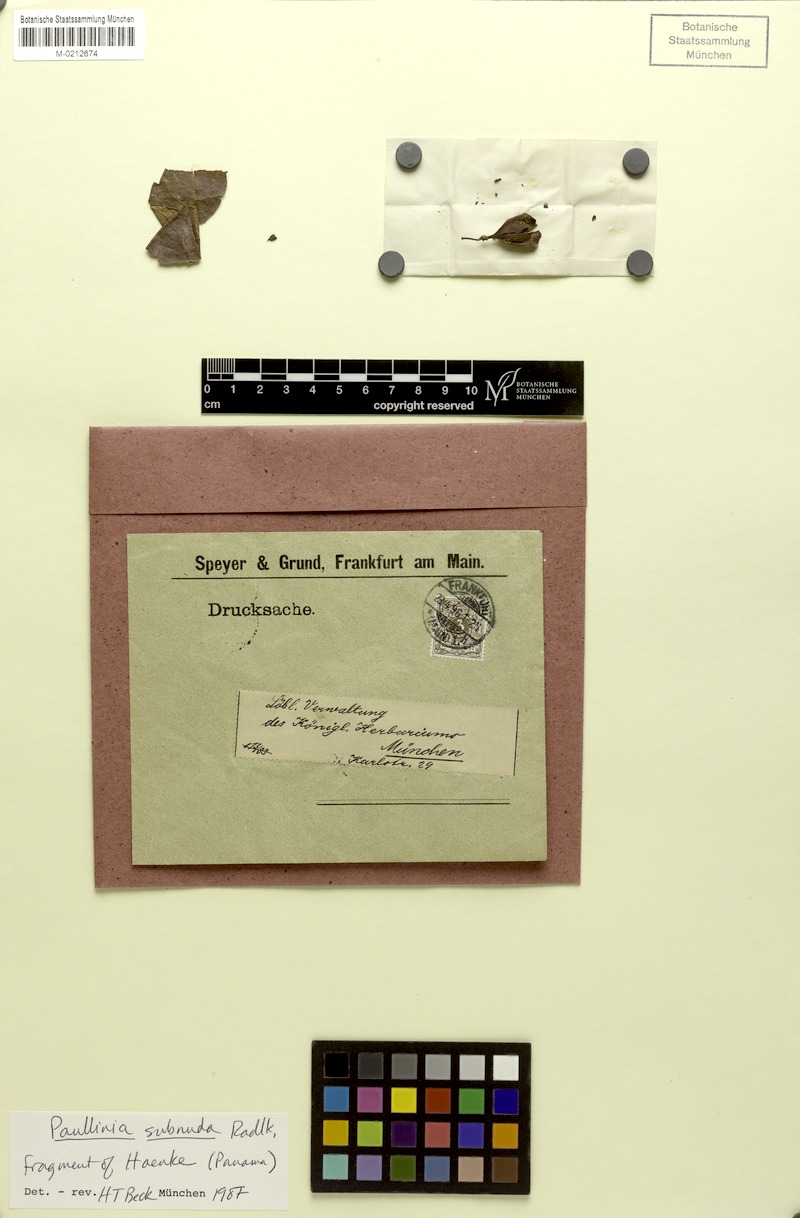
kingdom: Plantae
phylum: Tracheophyta
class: Magnoliopsida
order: Sapindales
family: Sapindaceae
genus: Paullinia
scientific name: Paullinia subnuda
